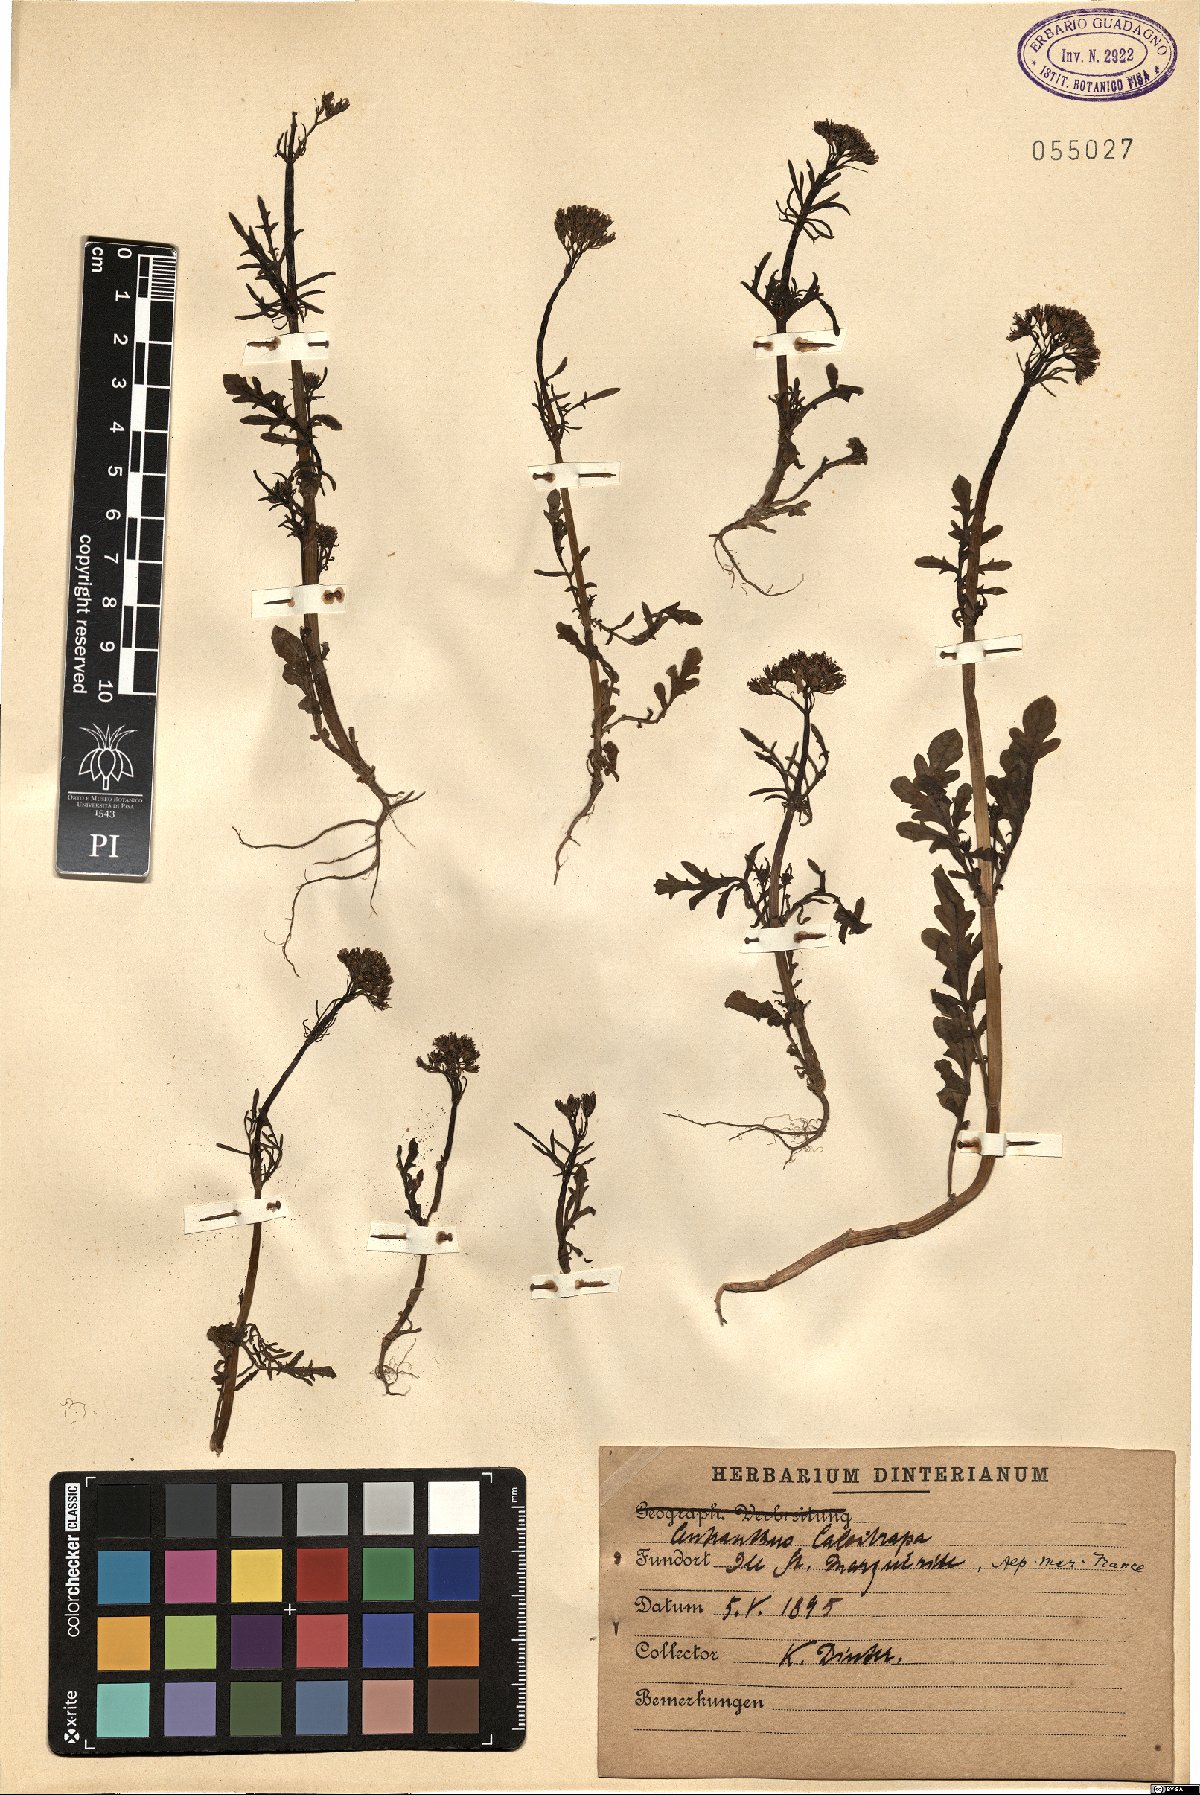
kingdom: Plantae
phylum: Tracheophyta
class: Magnoliopsida
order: Dipsacales
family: Caprifoliaceae
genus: Centranthus
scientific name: Centranthus calcitrapae
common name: Annual valerian
